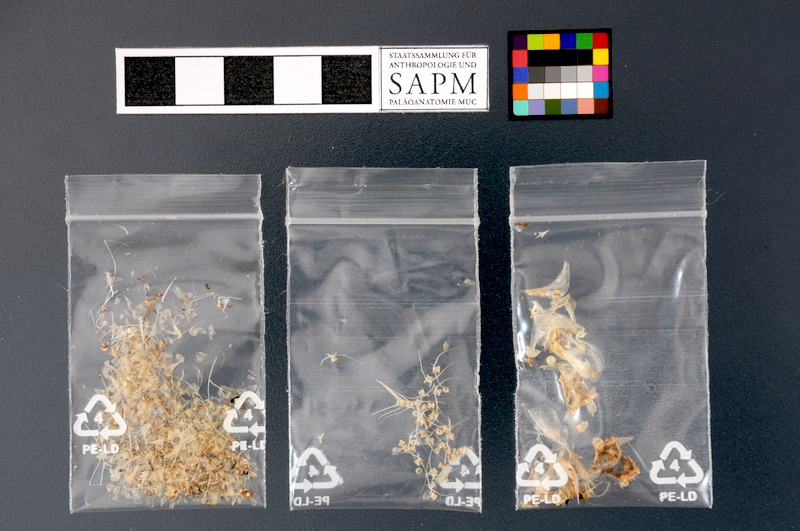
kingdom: Animalia
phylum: Chordata
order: Clupeiformes
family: Clupeidae
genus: Sardinella
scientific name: Sardinella
